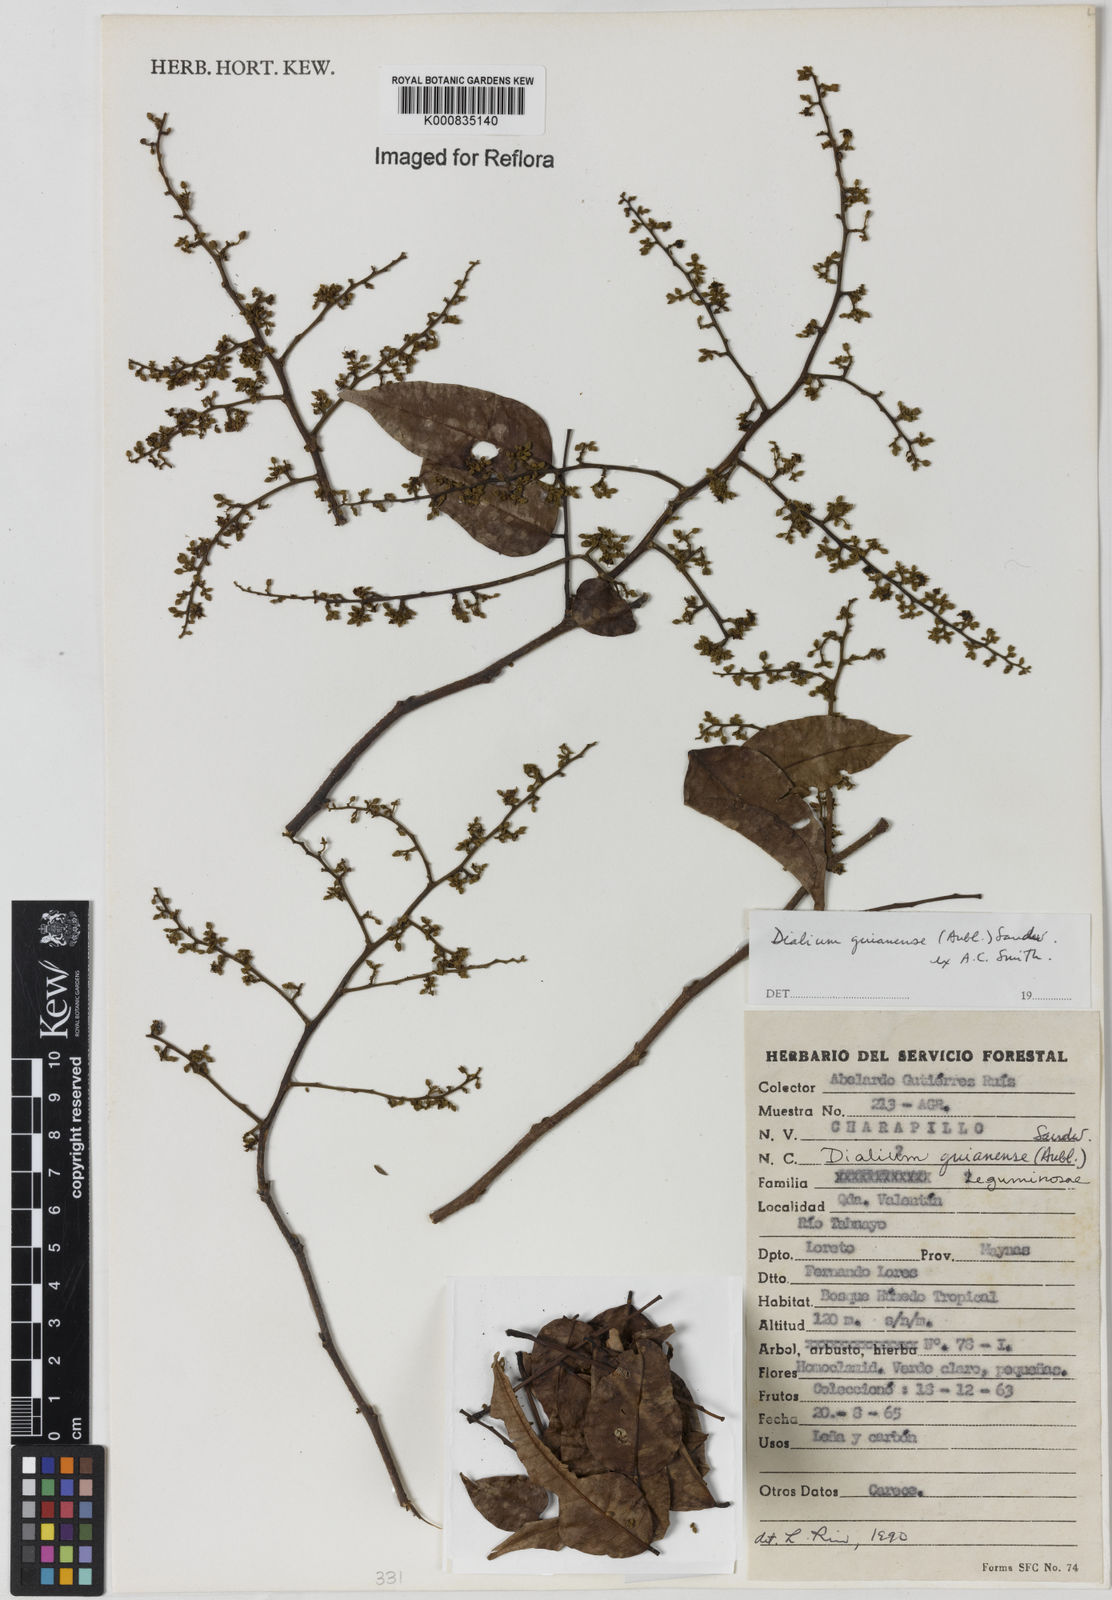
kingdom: Plantae
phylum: Tracheophyta
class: Magnoliopsida
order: Fabales
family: Fabaceae
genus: Dialium
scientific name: Dialium guianense
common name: Ironwood
